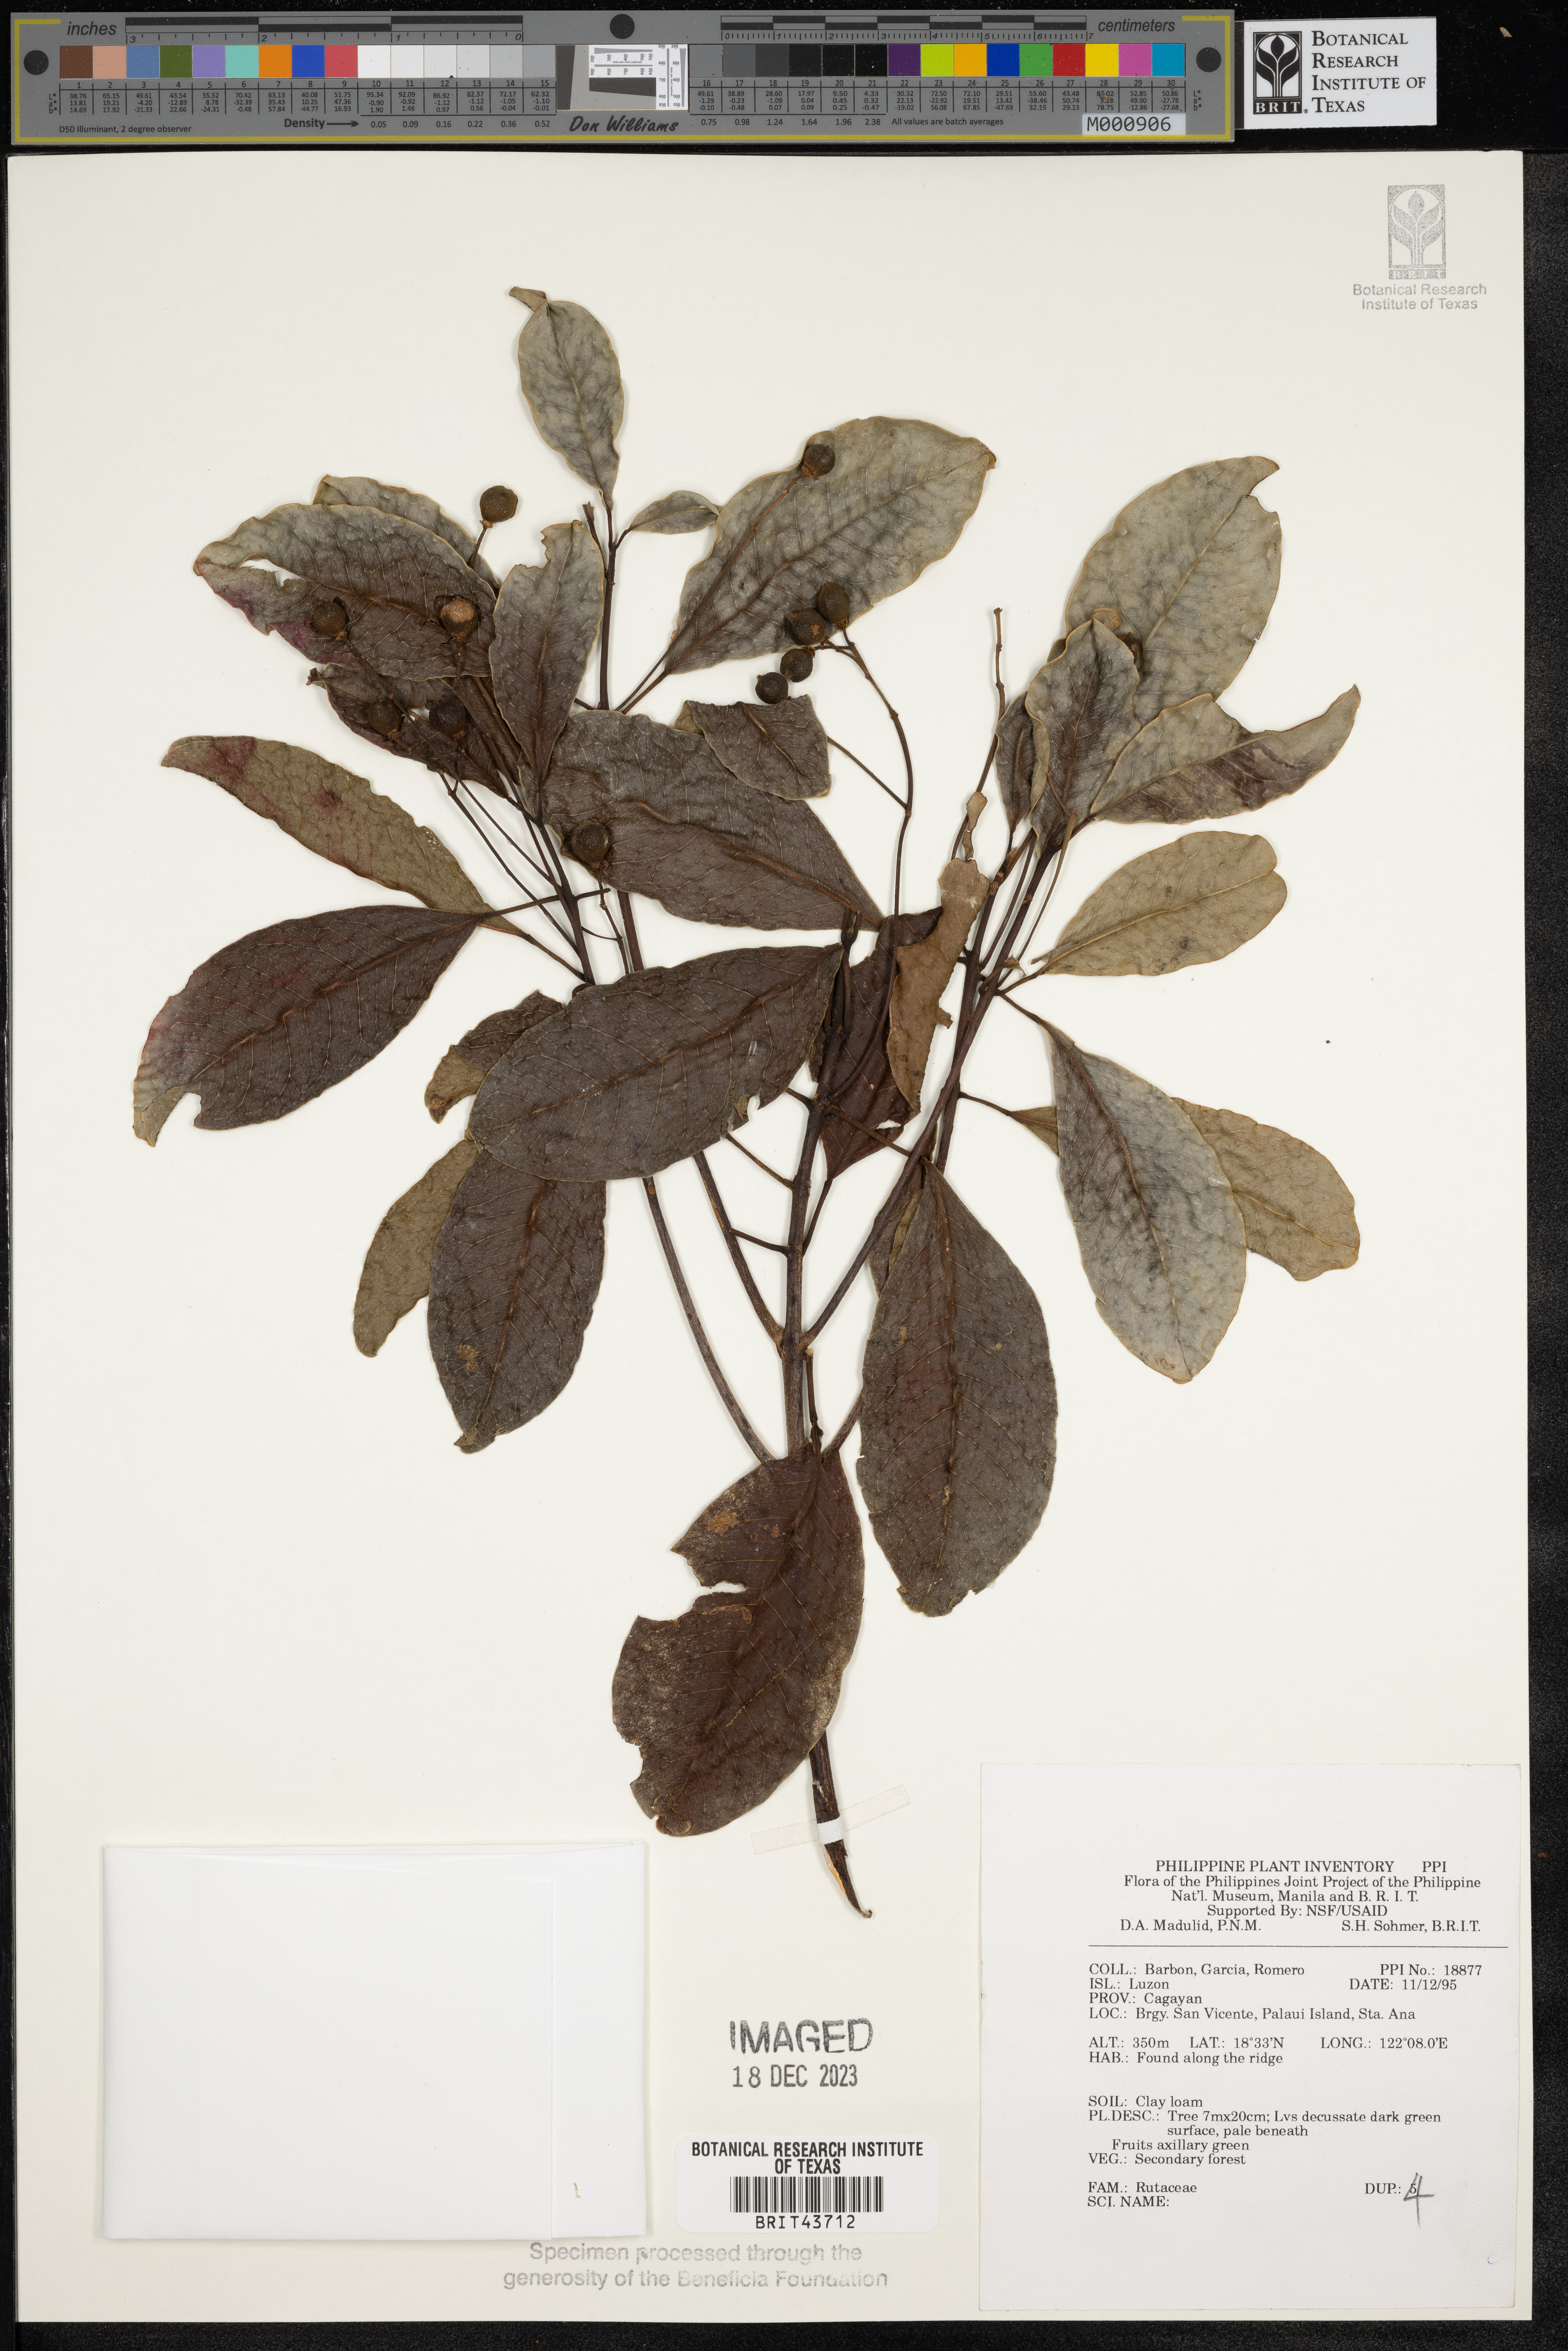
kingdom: Plantae
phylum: Tracheophyta
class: Magnoliopsida
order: Sapindales
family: Rutaceae
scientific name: Rutaceae
